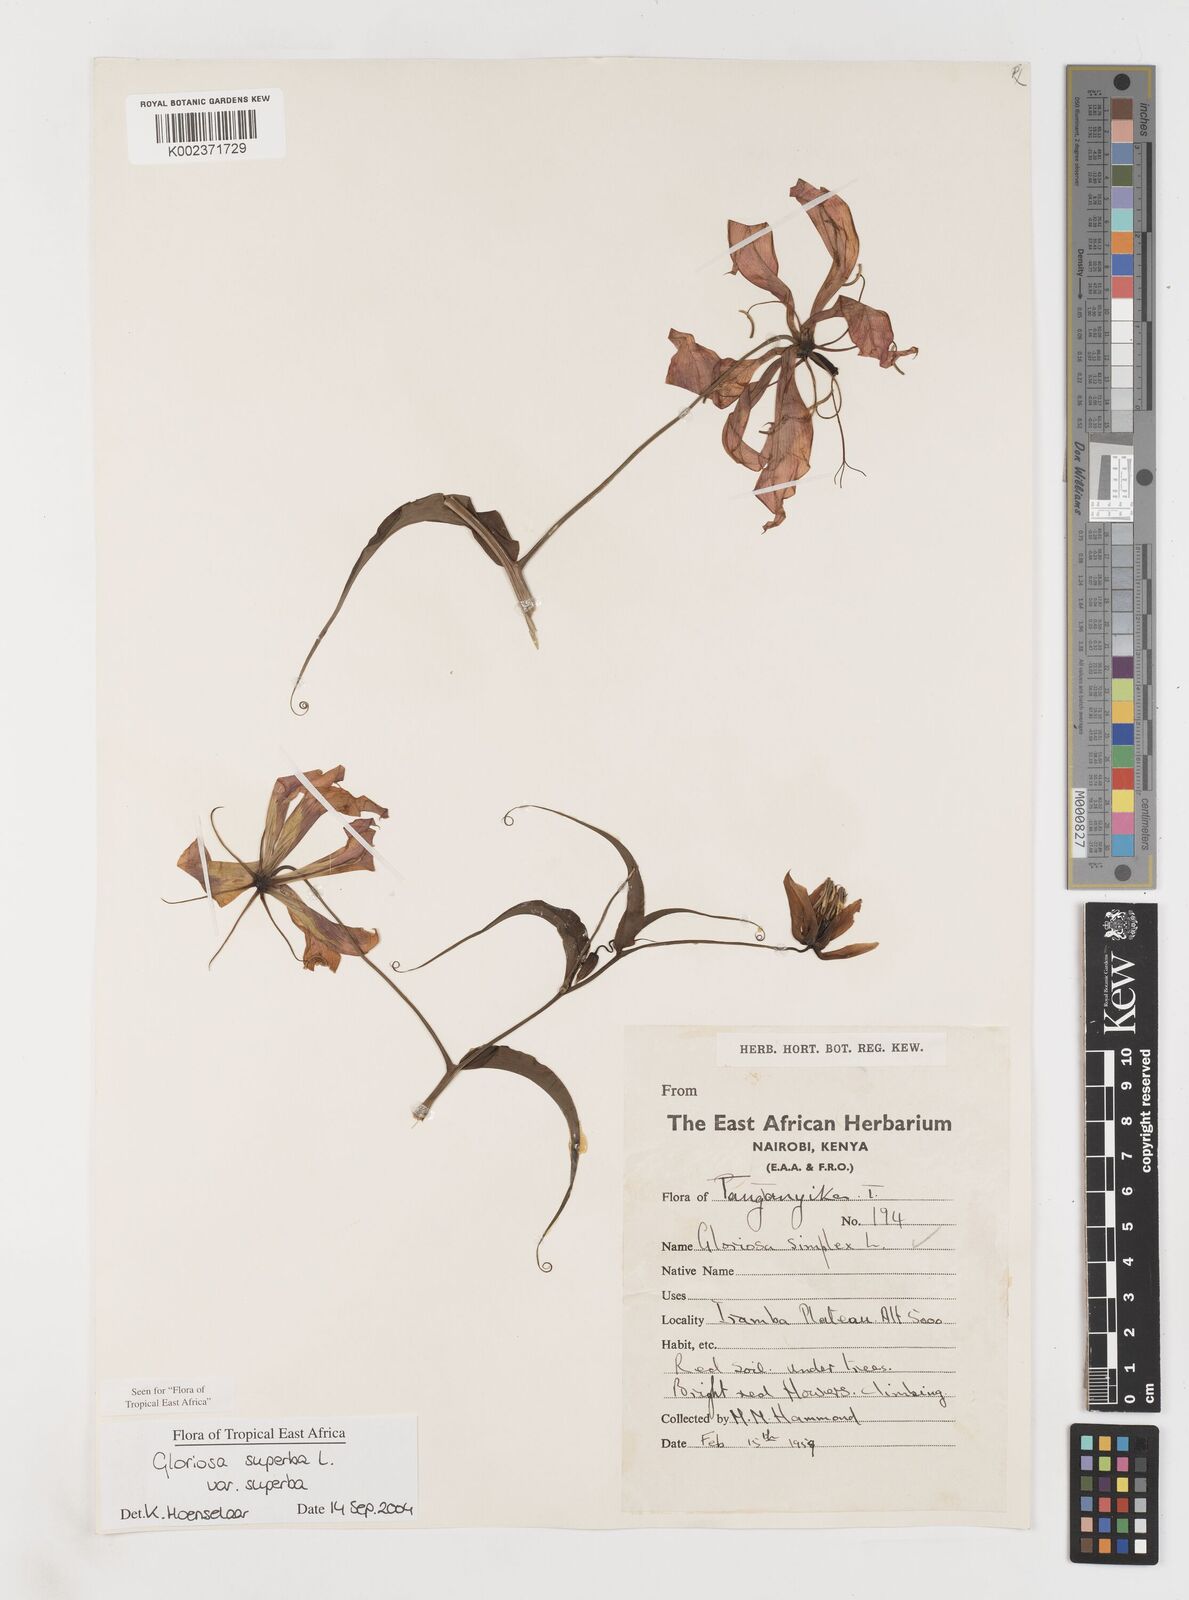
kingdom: Plantae
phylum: Tracheophyta
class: Liliopsida
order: Liliales
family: Colchicaceae
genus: Gloriosa
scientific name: Gloriosa simplex
